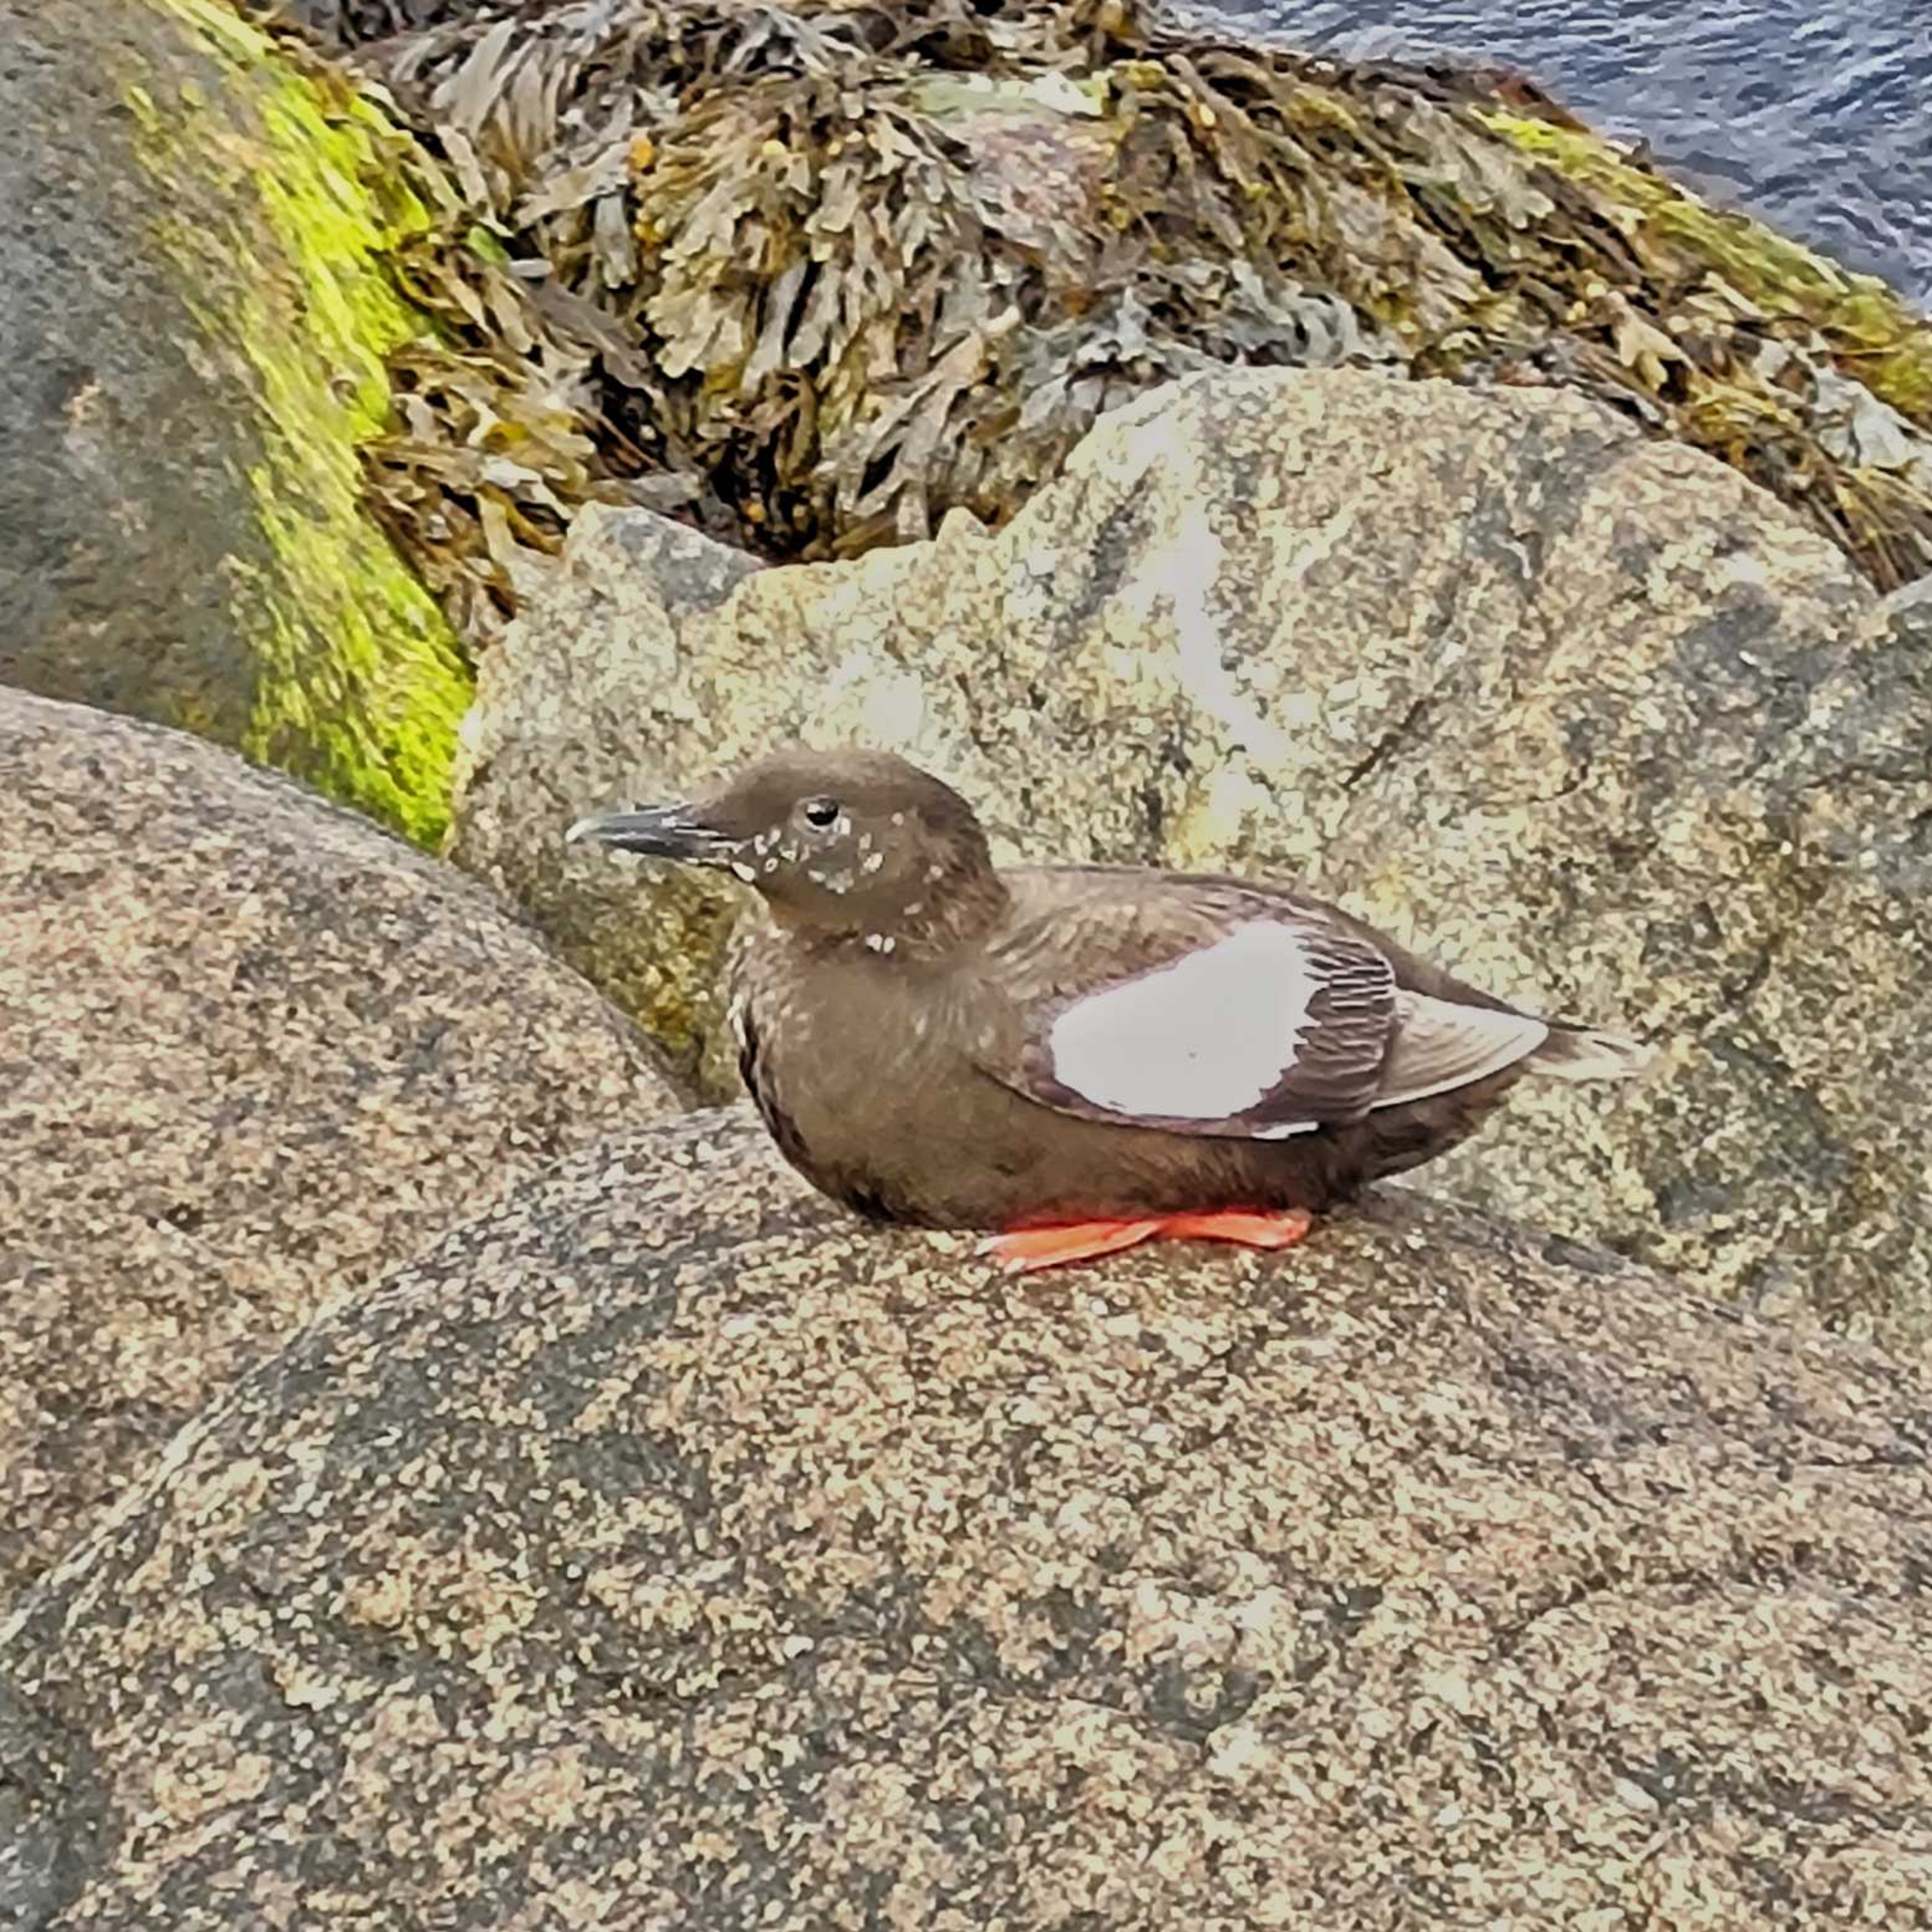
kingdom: Animalia
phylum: Chordata
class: Aves
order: Charadriiformes
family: Alcidae
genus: Cepphus
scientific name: Cepphus grylle
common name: Tejst
